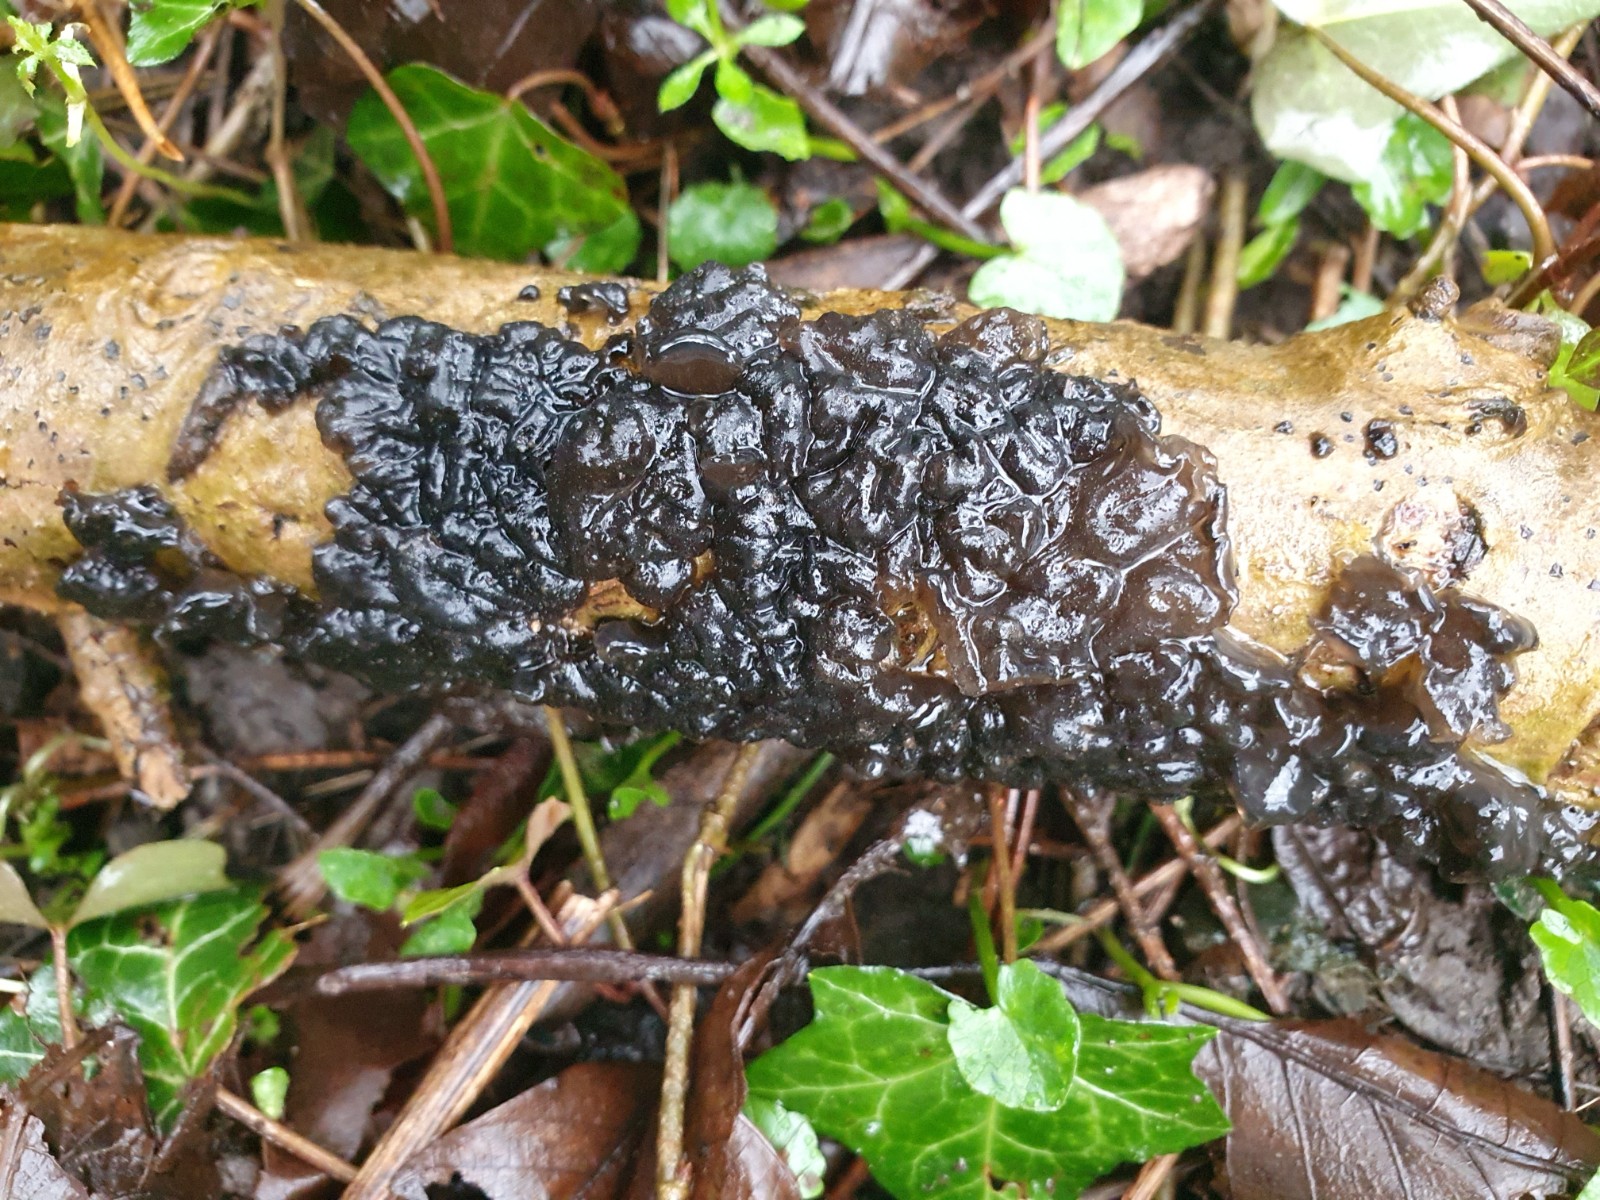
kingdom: Fungi
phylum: Basidiomycota
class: Agaricomycetes
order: Auriculariales
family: Auriculariaceae
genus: Exidia
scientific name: Exidia nigricans
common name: almindelig bævretop
